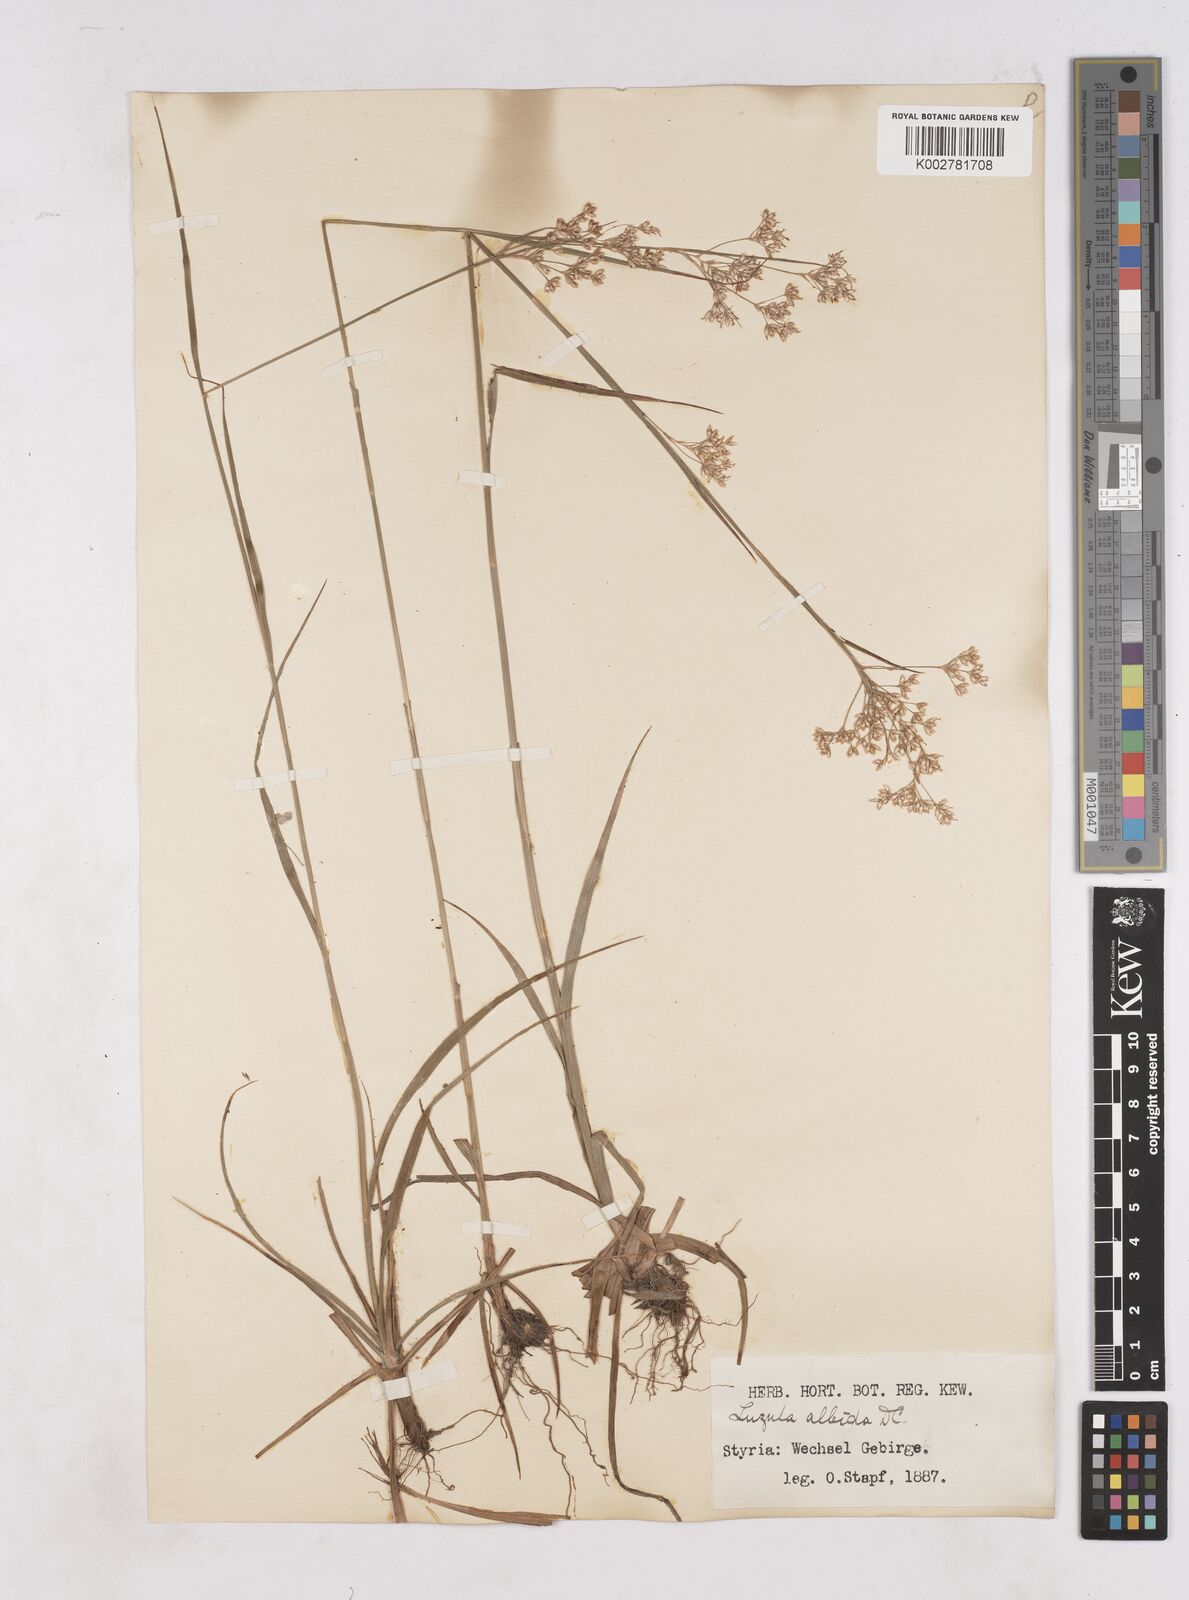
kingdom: Plantae
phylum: Tracheophyta
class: Liliopsida
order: Poales
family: Juncaceae
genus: Luzula
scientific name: Luzula luzuloides
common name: White wood-rush
